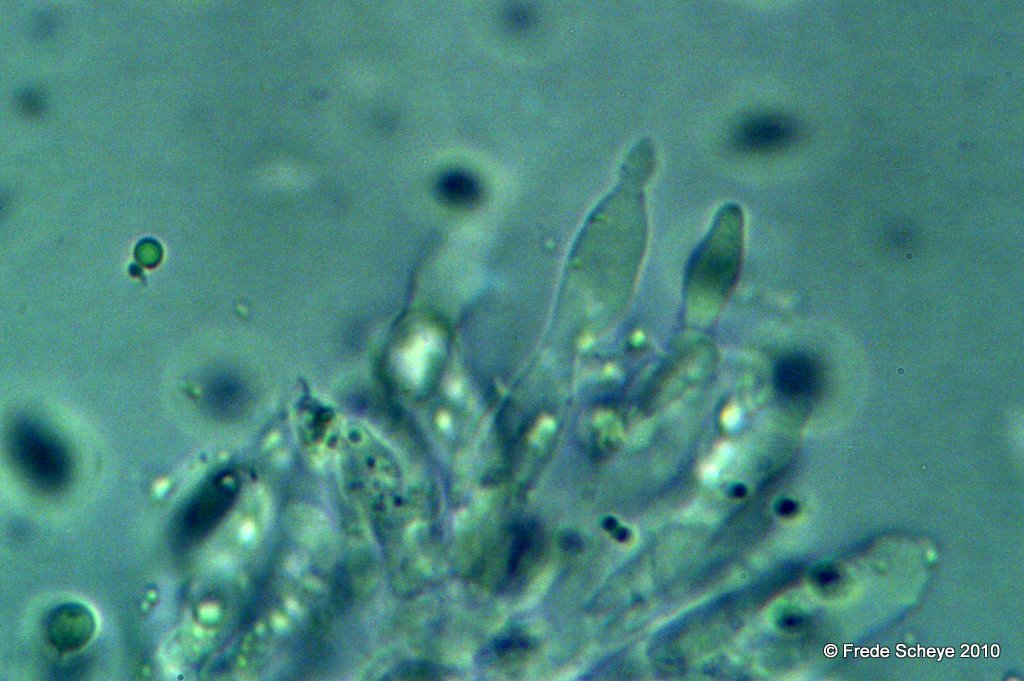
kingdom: Fungi
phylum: Basidiomycota
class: Agaricomycetes
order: Agaricales
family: Mycenaceae
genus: Mycena
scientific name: Mycena vitilis
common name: blankstokket huesvamp
